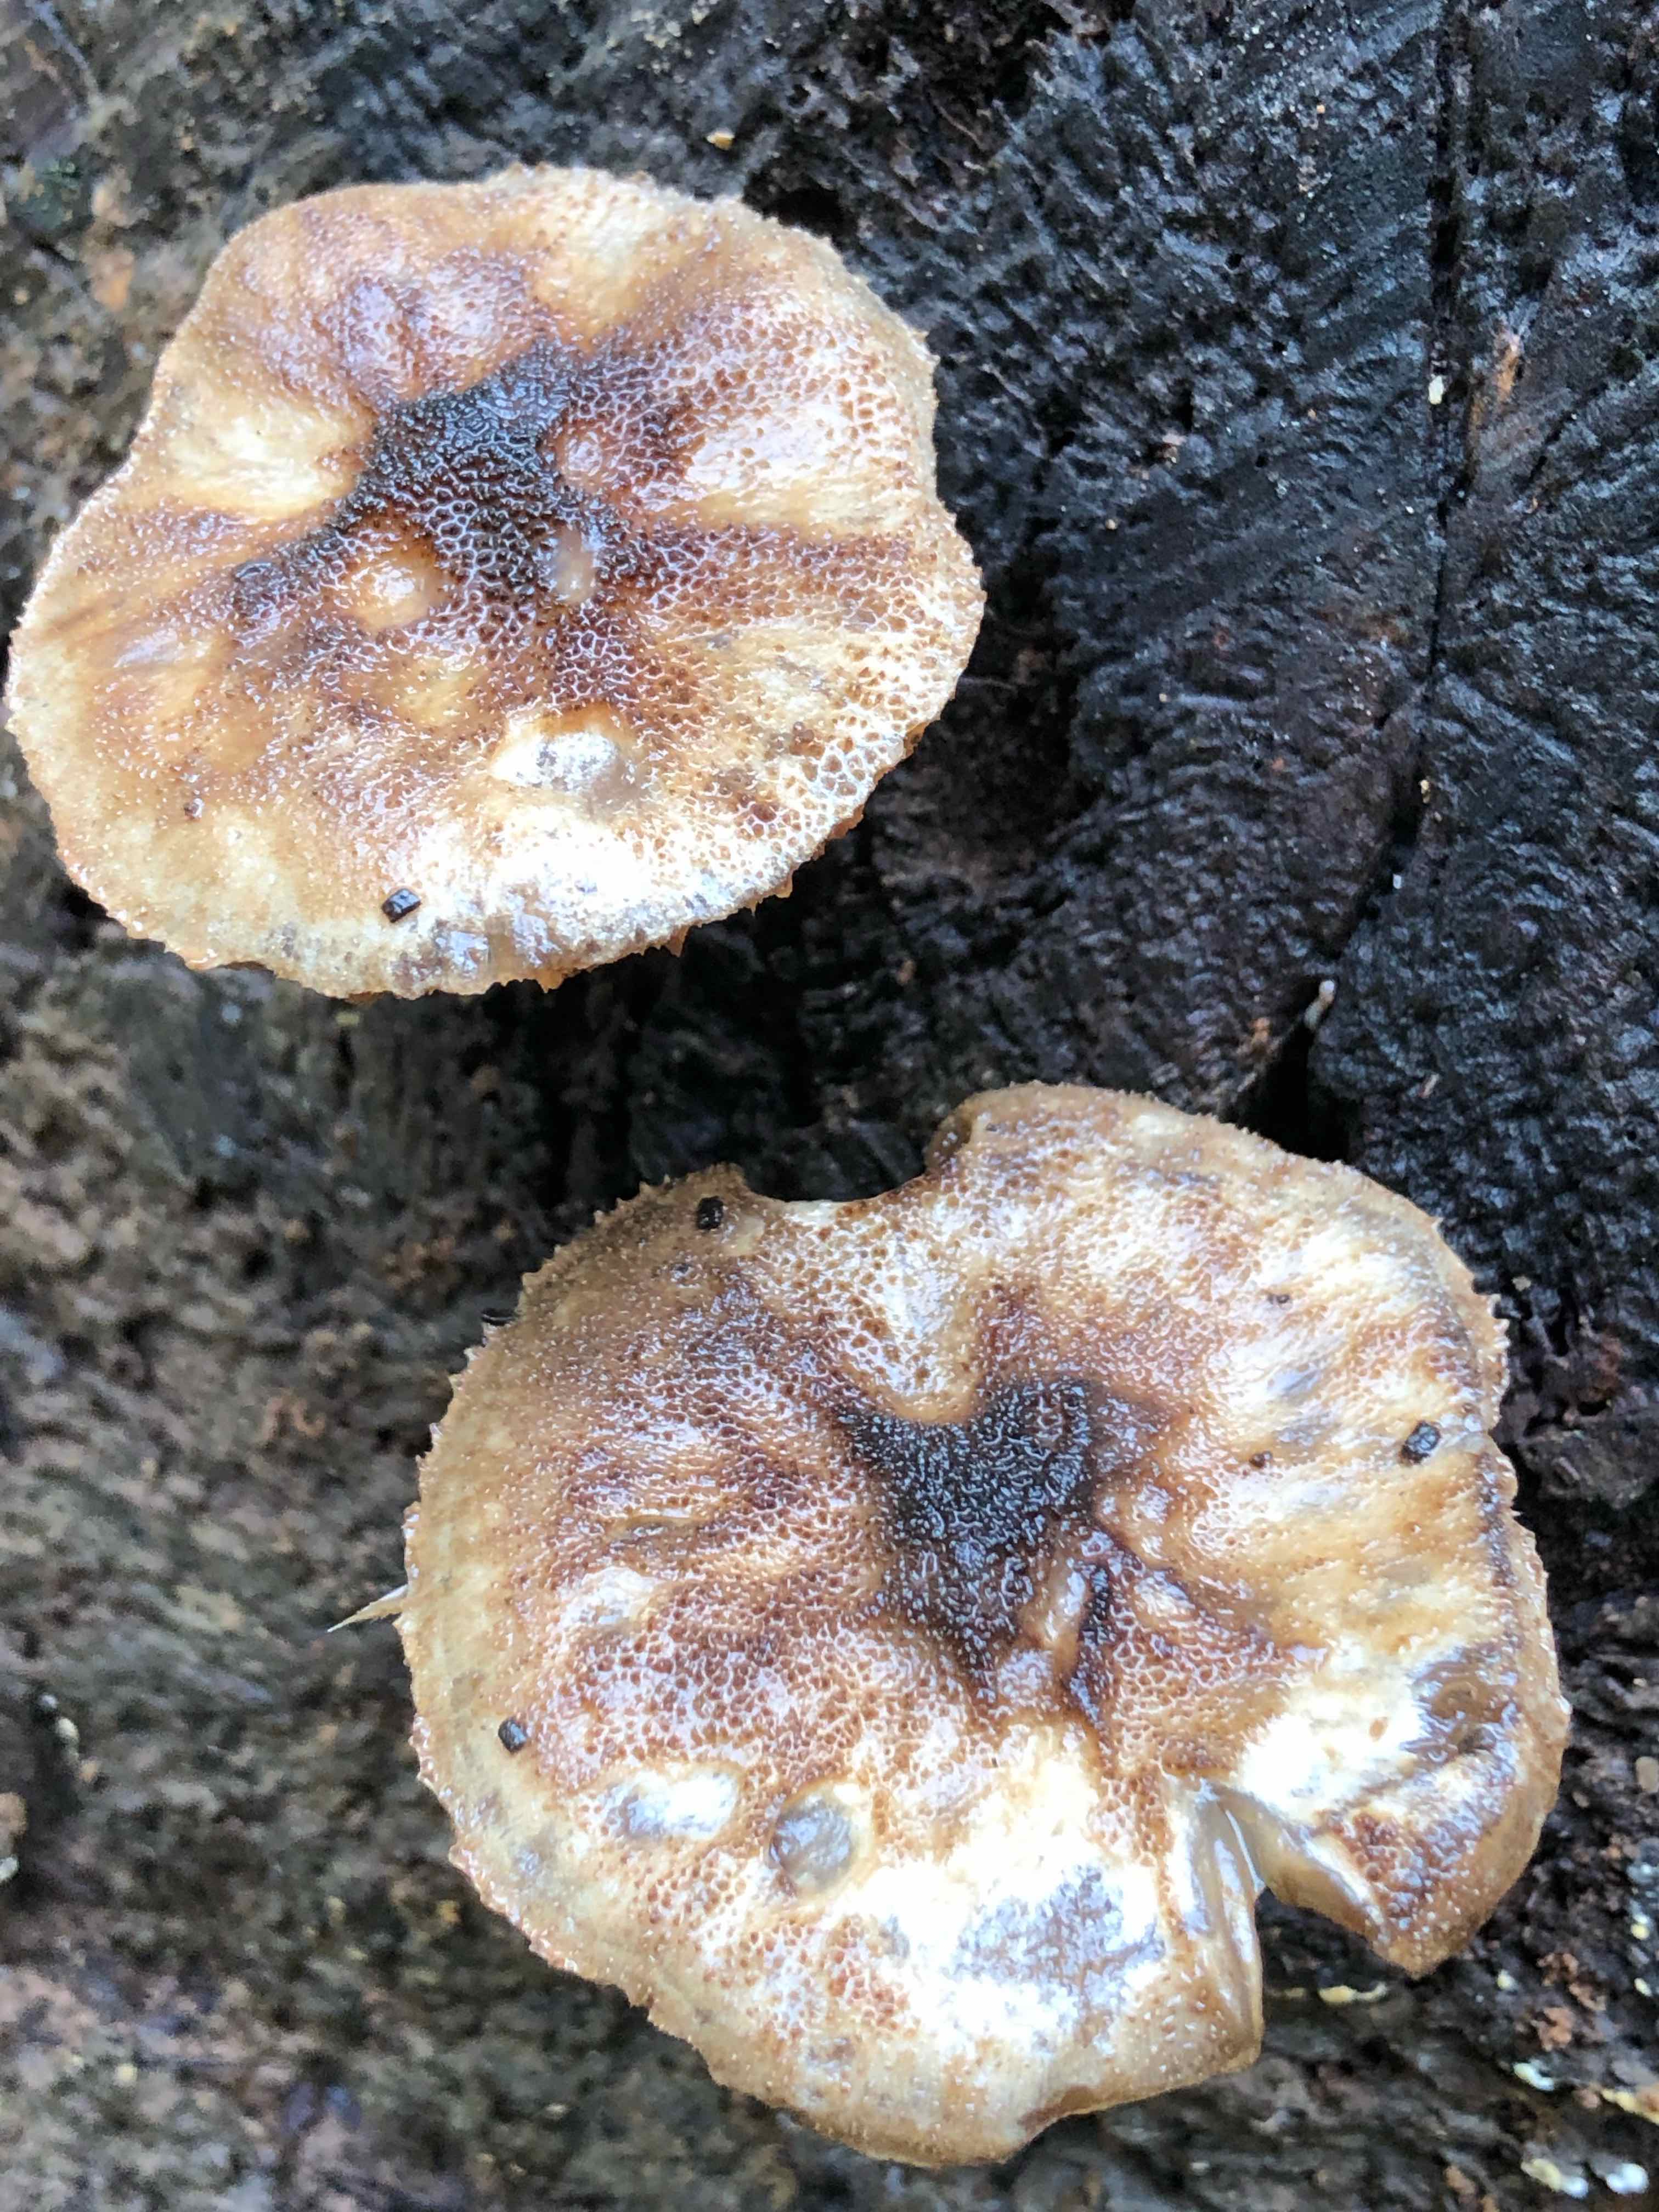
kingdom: Fungi
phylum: Basidiomycota
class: Agaricomycetes
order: Agaricales
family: Pluteaceae
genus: Pluteus
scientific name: Pluteus umbrosus
